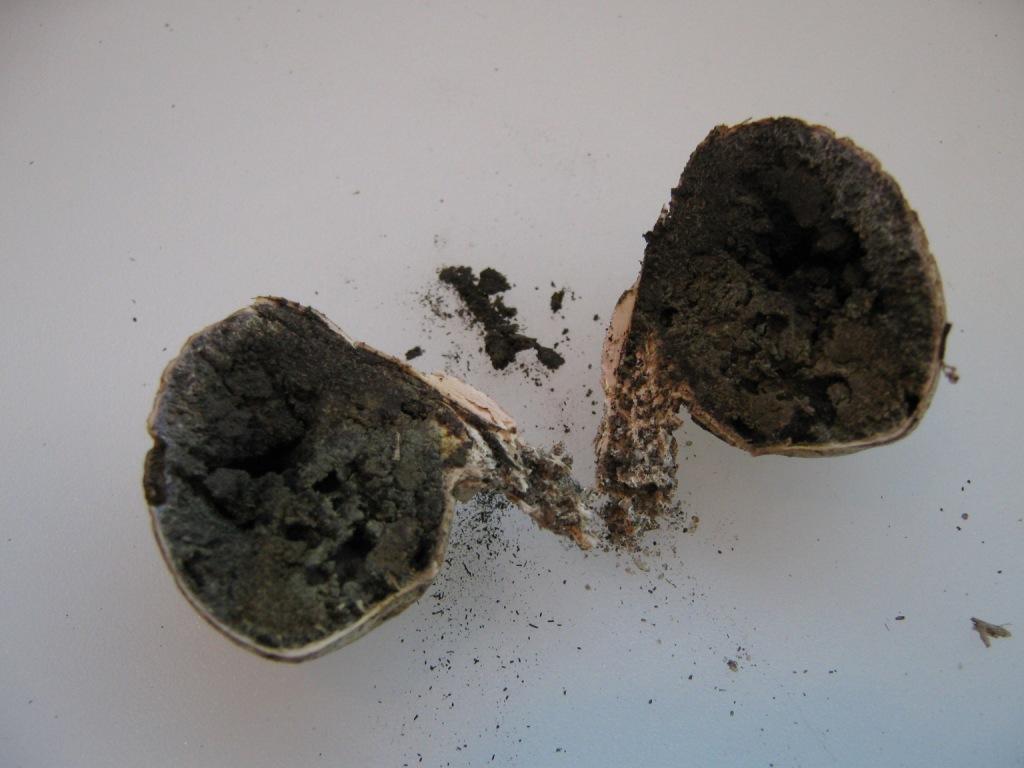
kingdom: Fungi
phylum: Basidiomycota
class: Agaricomycetes
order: Boletales
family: Sclerodermataceae
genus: Scleroderma
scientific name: Scleroderma verrucosum
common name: stilket bruskbold
